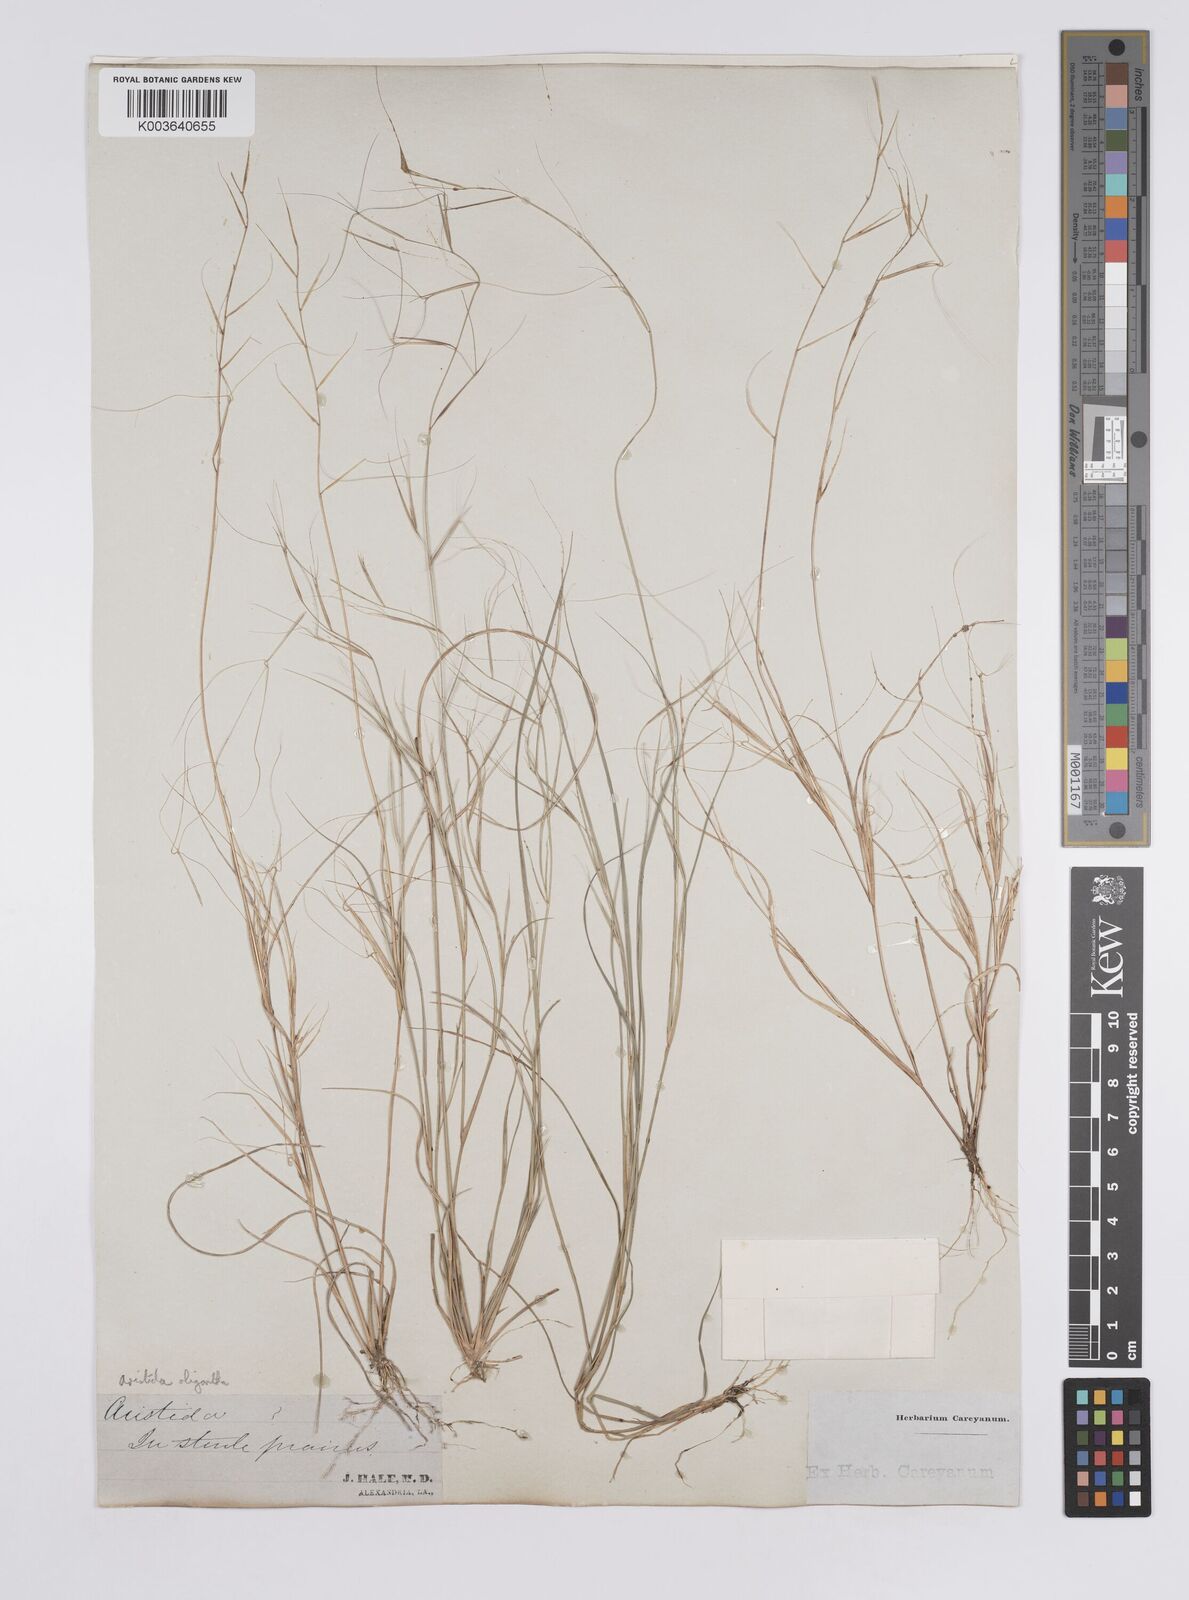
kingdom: Plantae
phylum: Tracheophyta
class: Liliopsida
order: Poales
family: Poaceae
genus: Aristida
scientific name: Aristida oligantha
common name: Few-flowered aristida
